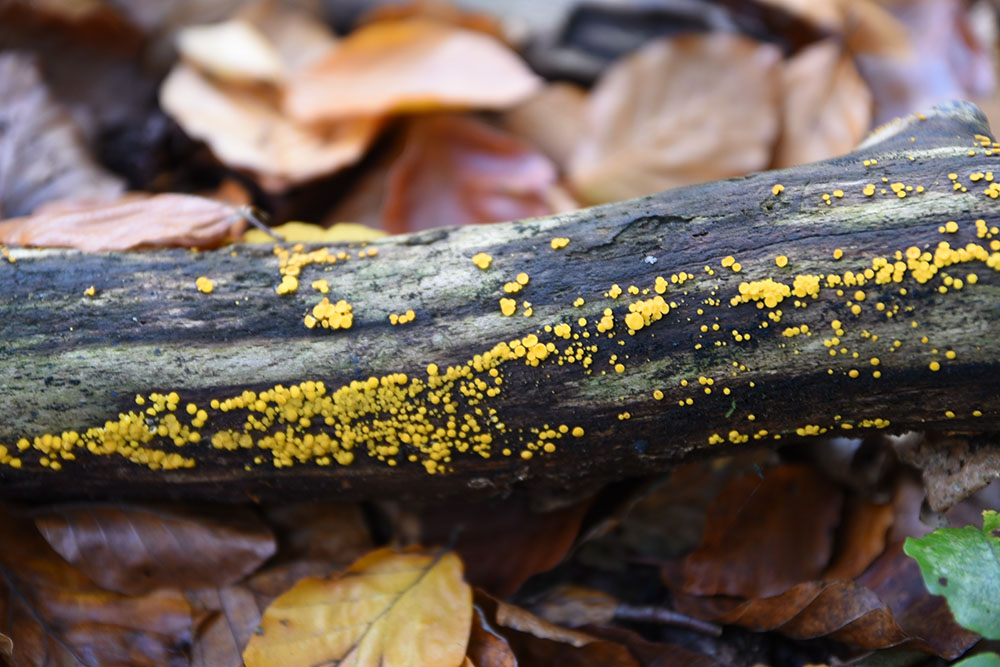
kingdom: Fungi
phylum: Ascomycota
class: Leotiomycetes
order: Helotiales
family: Pezizellaceae
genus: Calycina
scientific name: Calycina citrina
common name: Yellow fairy cups
